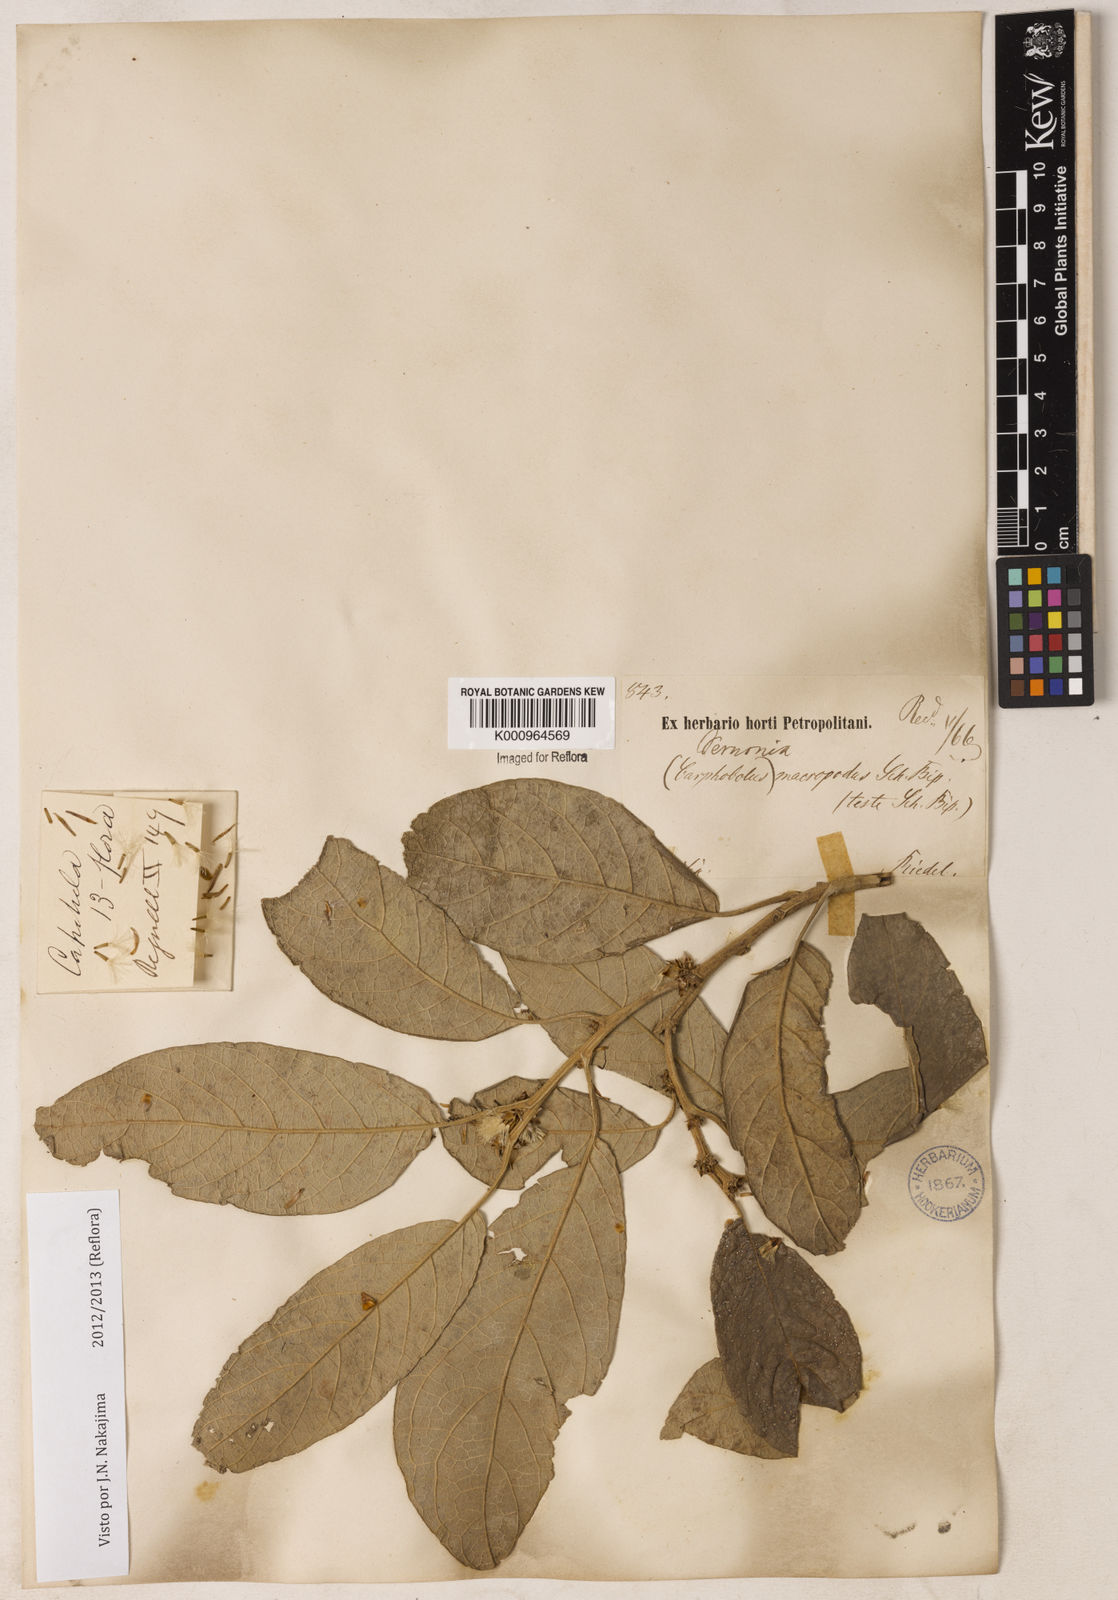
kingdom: Plantae
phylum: Tracheophyta
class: Magnoliopsida
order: Asterales
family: Asteraceae
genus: Piptocarpha
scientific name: Piptocarpha macropoda
